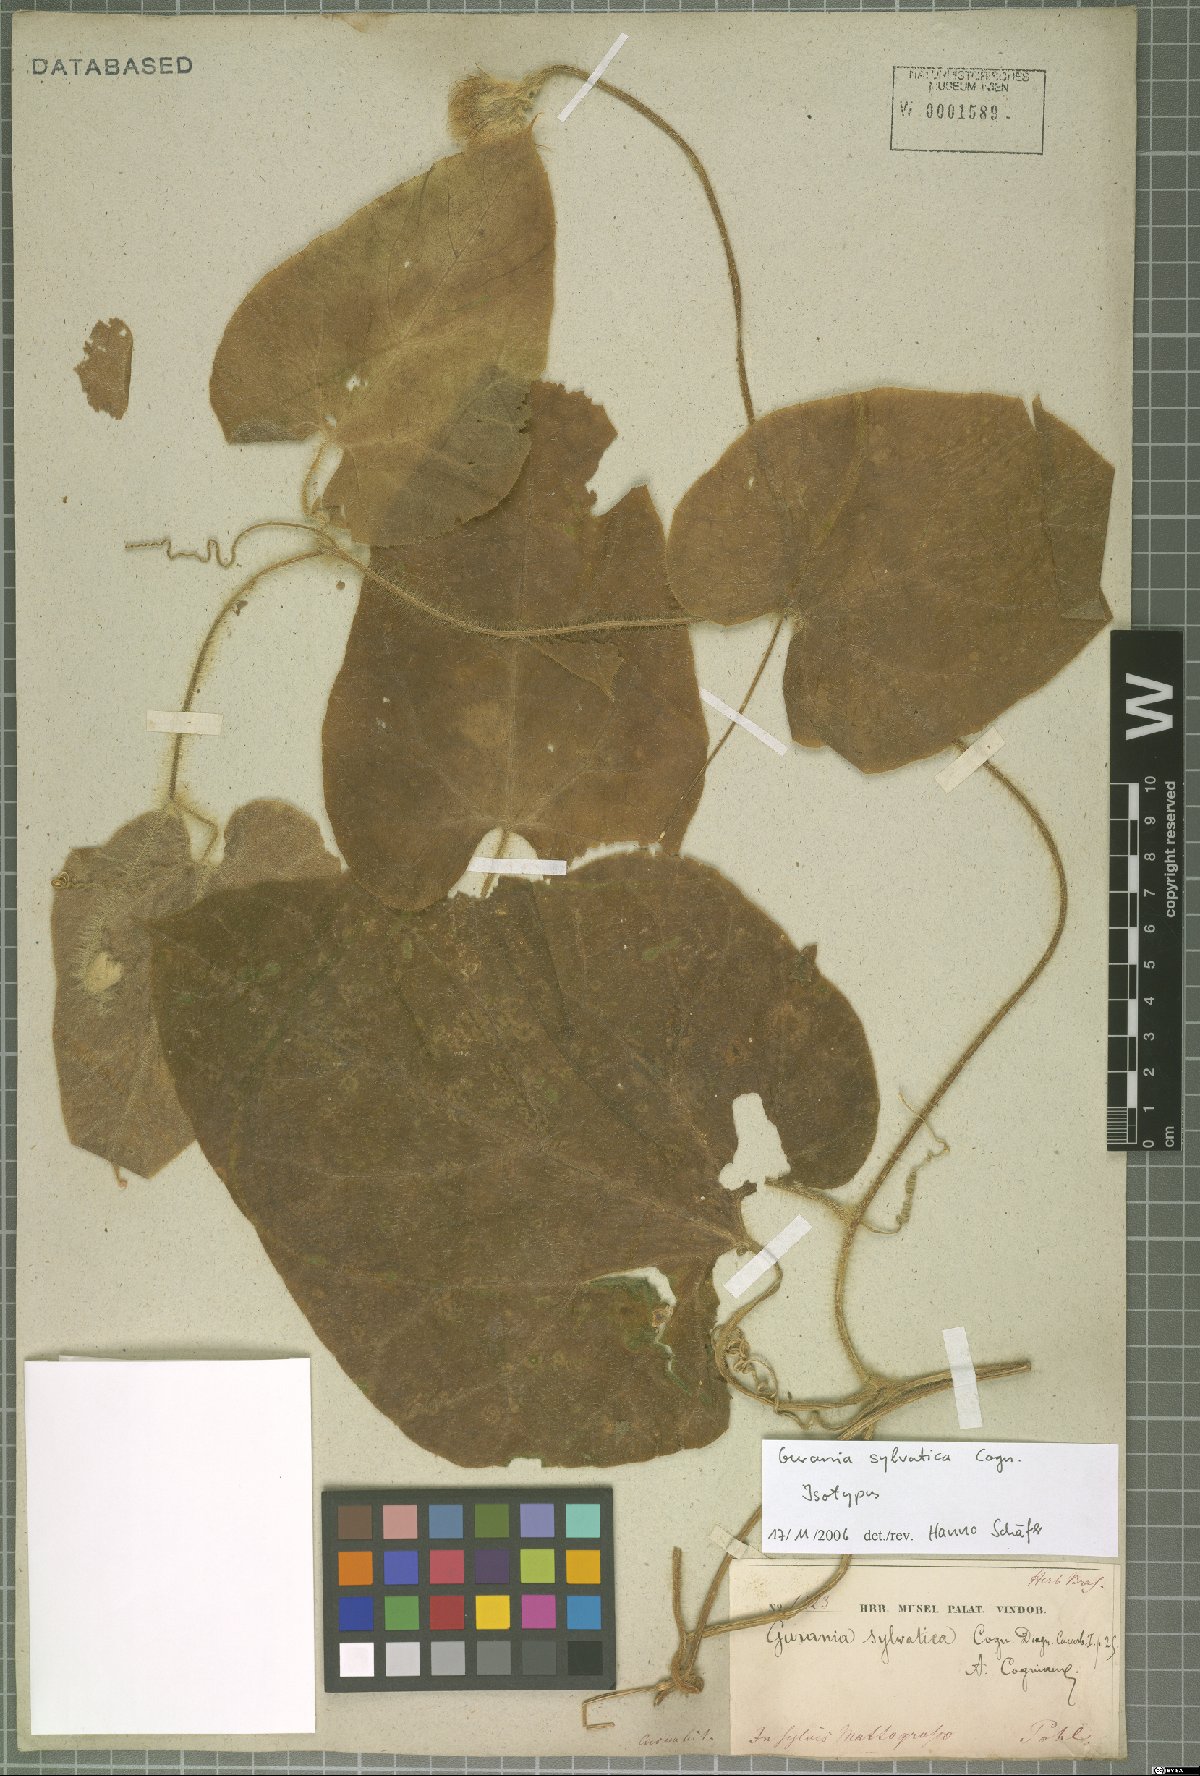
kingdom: Plantae
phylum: Tracheophyta
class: Magnoliopsida
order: Cucurbitales
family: Cucurbitaceae
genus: Gurania
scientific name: Gurania eriantha
